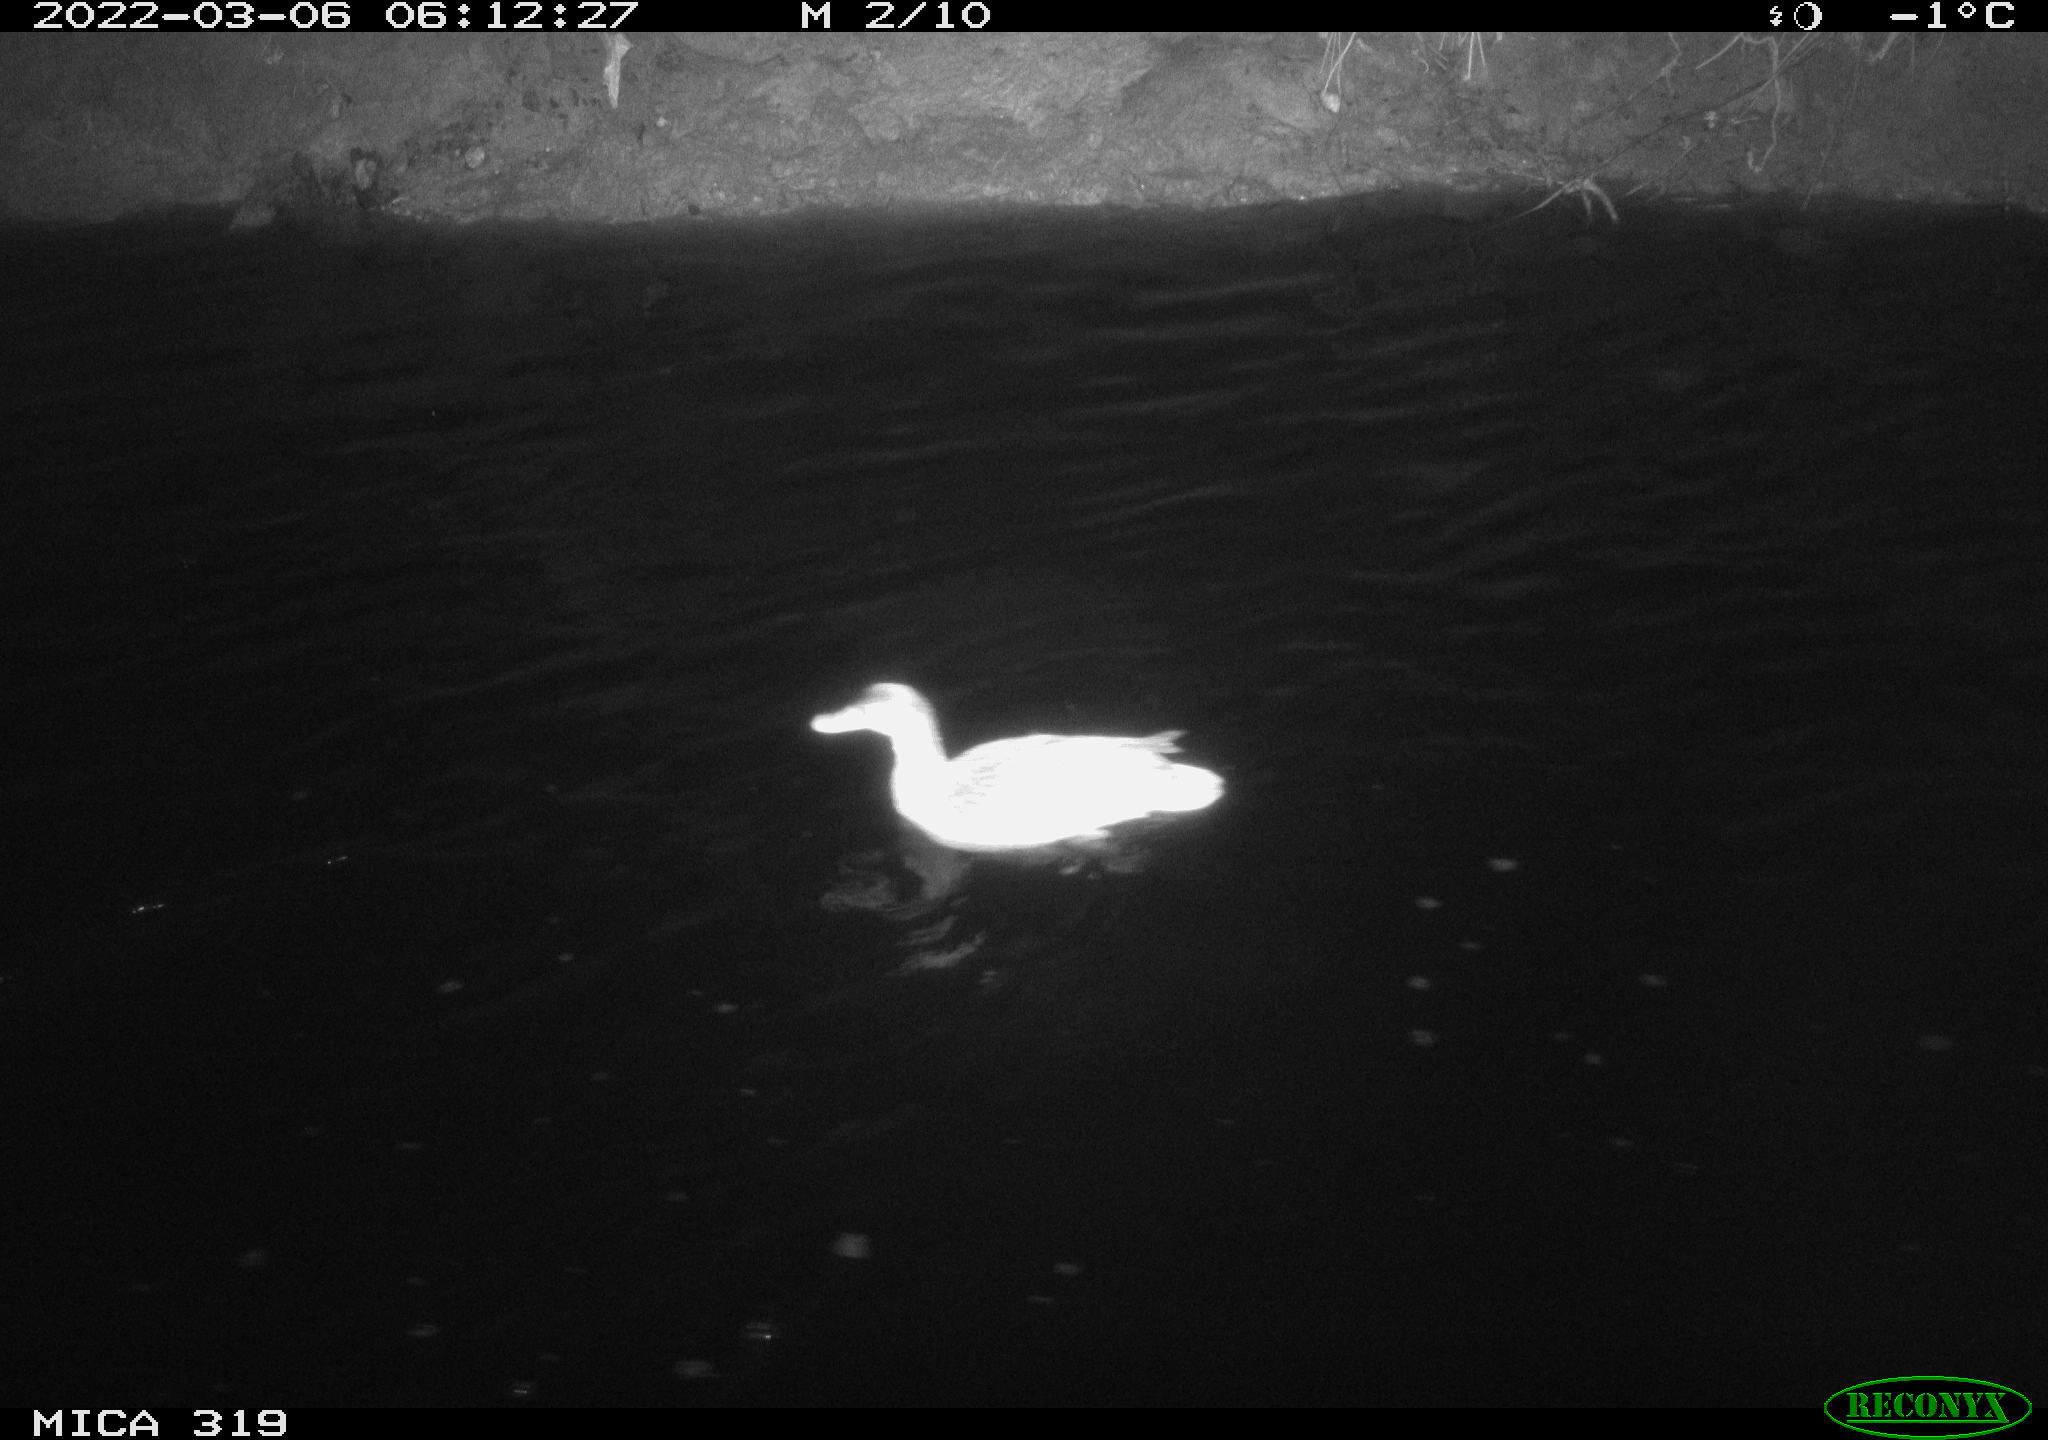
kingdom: Animalia
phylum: Chordata
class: Aves
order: Anseriformes
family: Anatidae
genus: Anas
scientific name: Anas platyrhynchos
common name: Mallard
